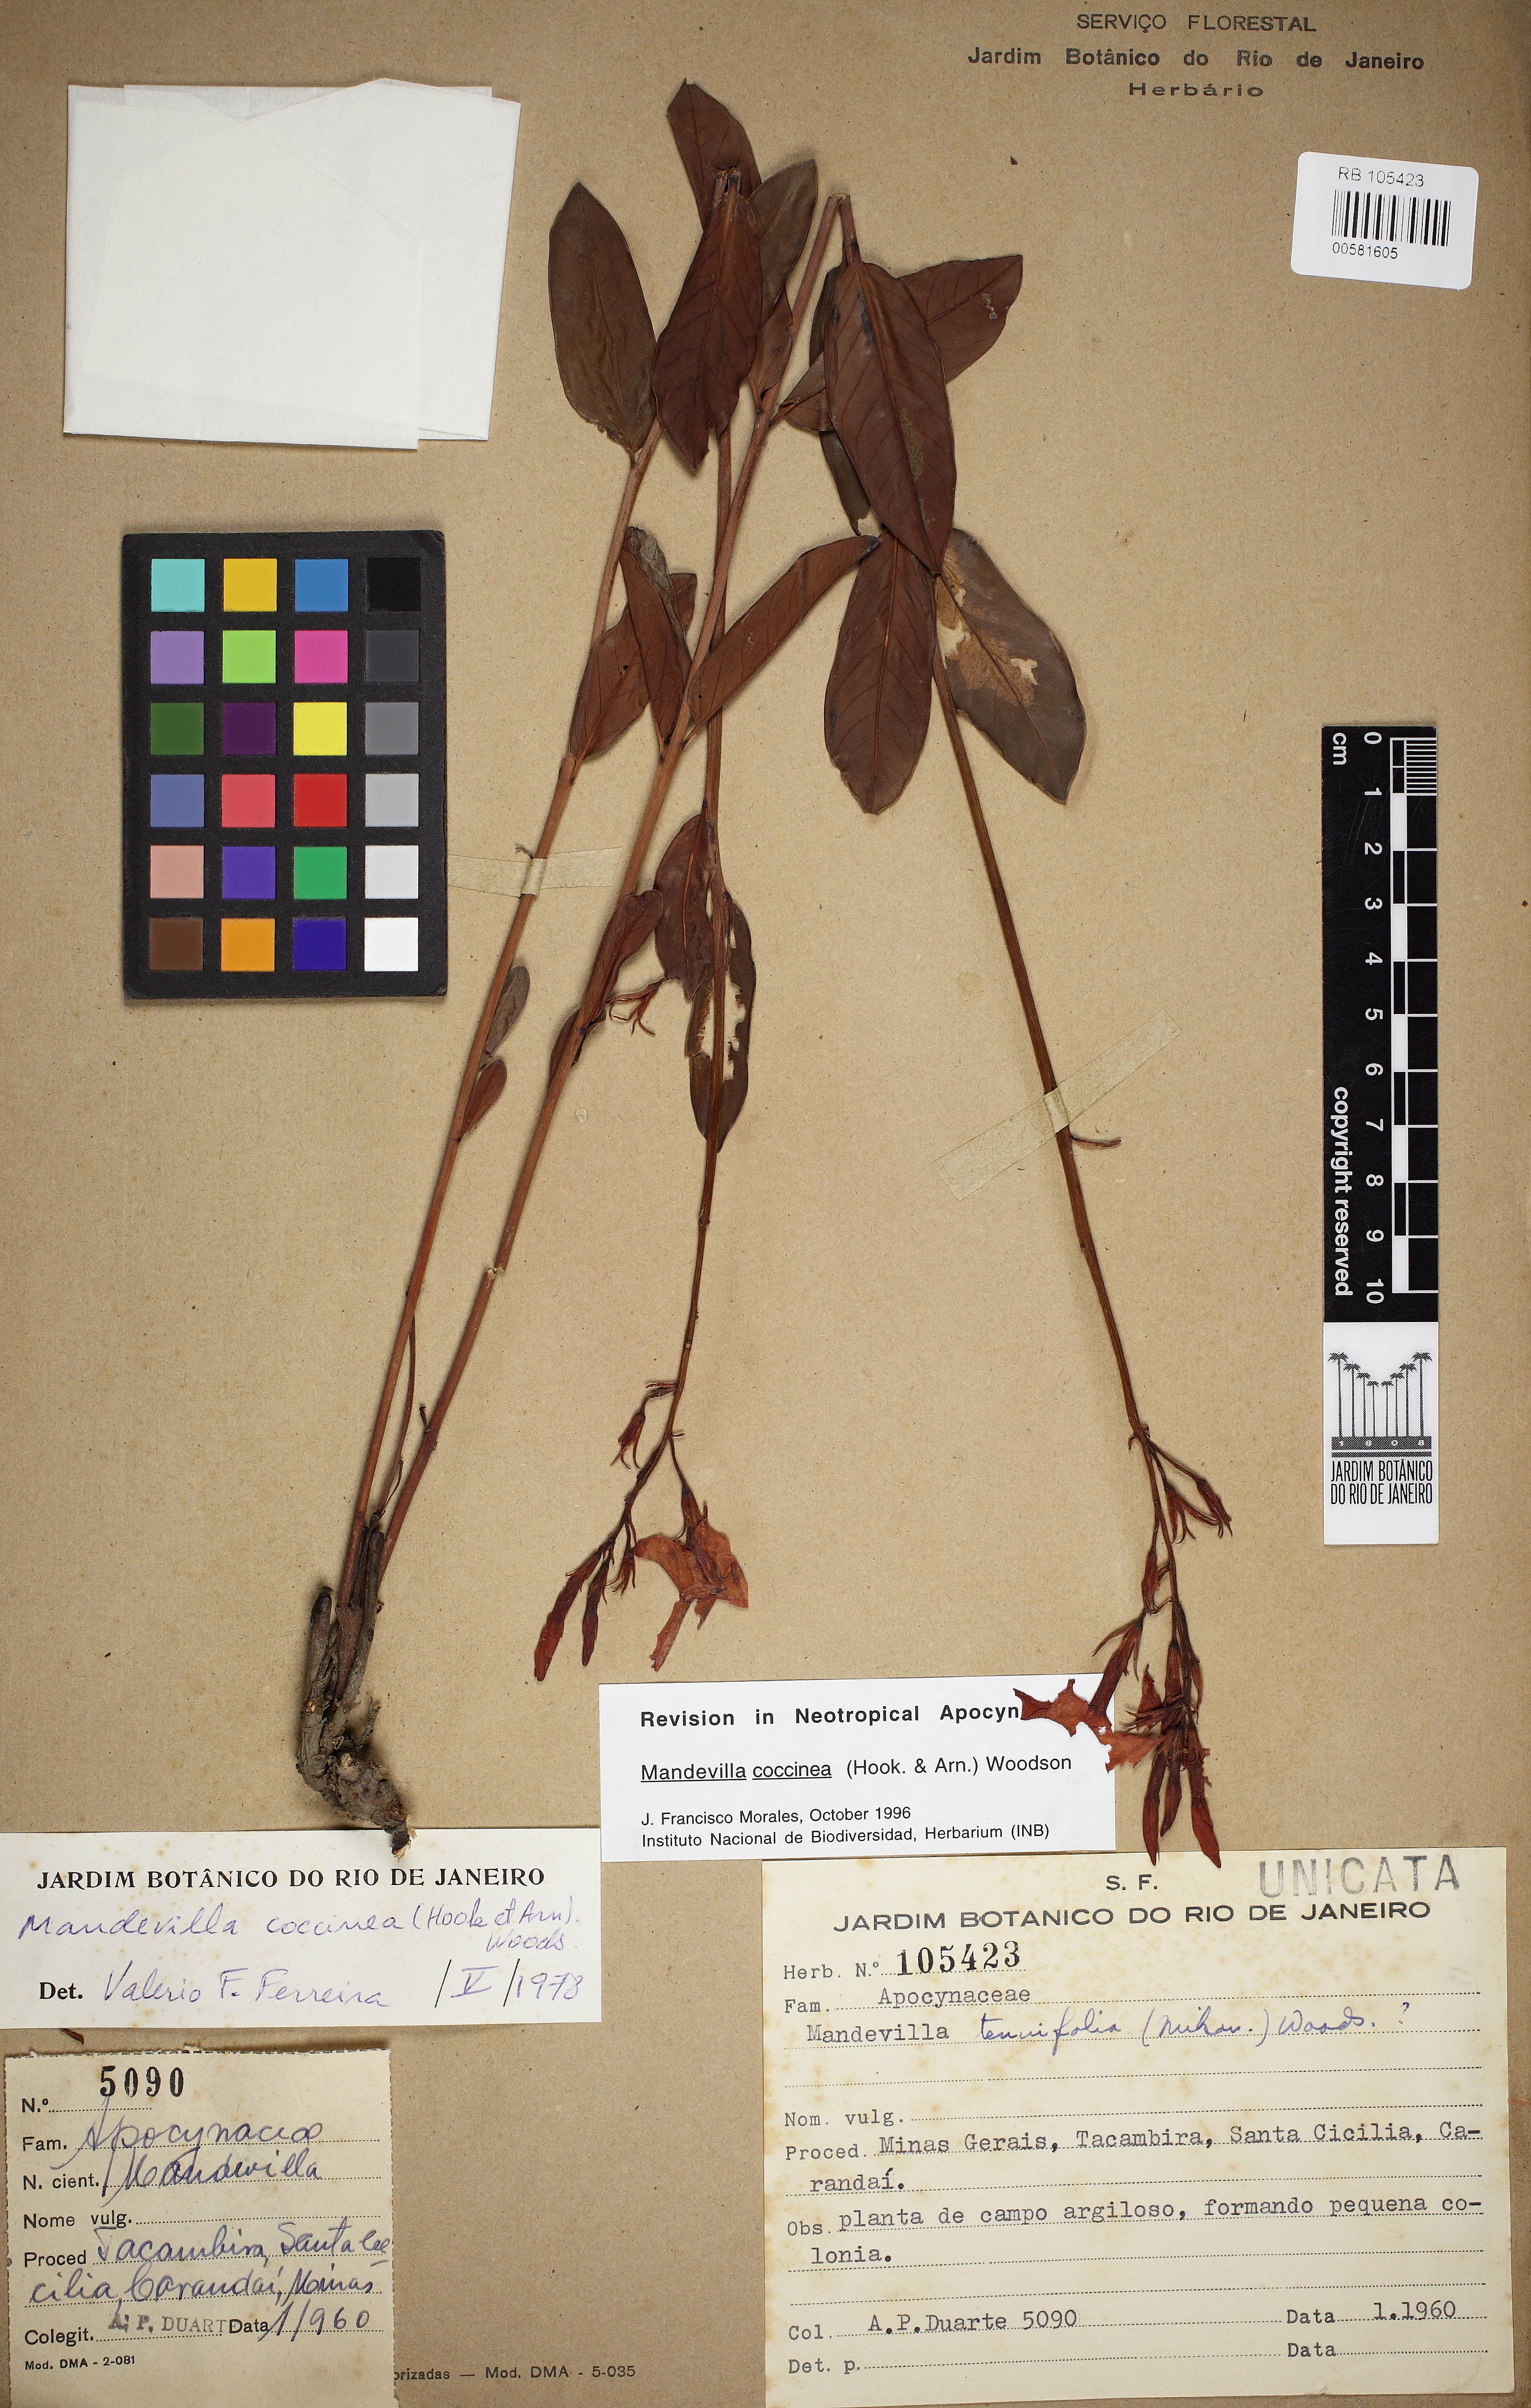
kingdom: Plantae
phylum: Tracheophyta
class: Magnoliopsida
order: Gentianales
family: Apocynaceae
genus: Mandevilla
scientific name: Mandevilla coccinea
